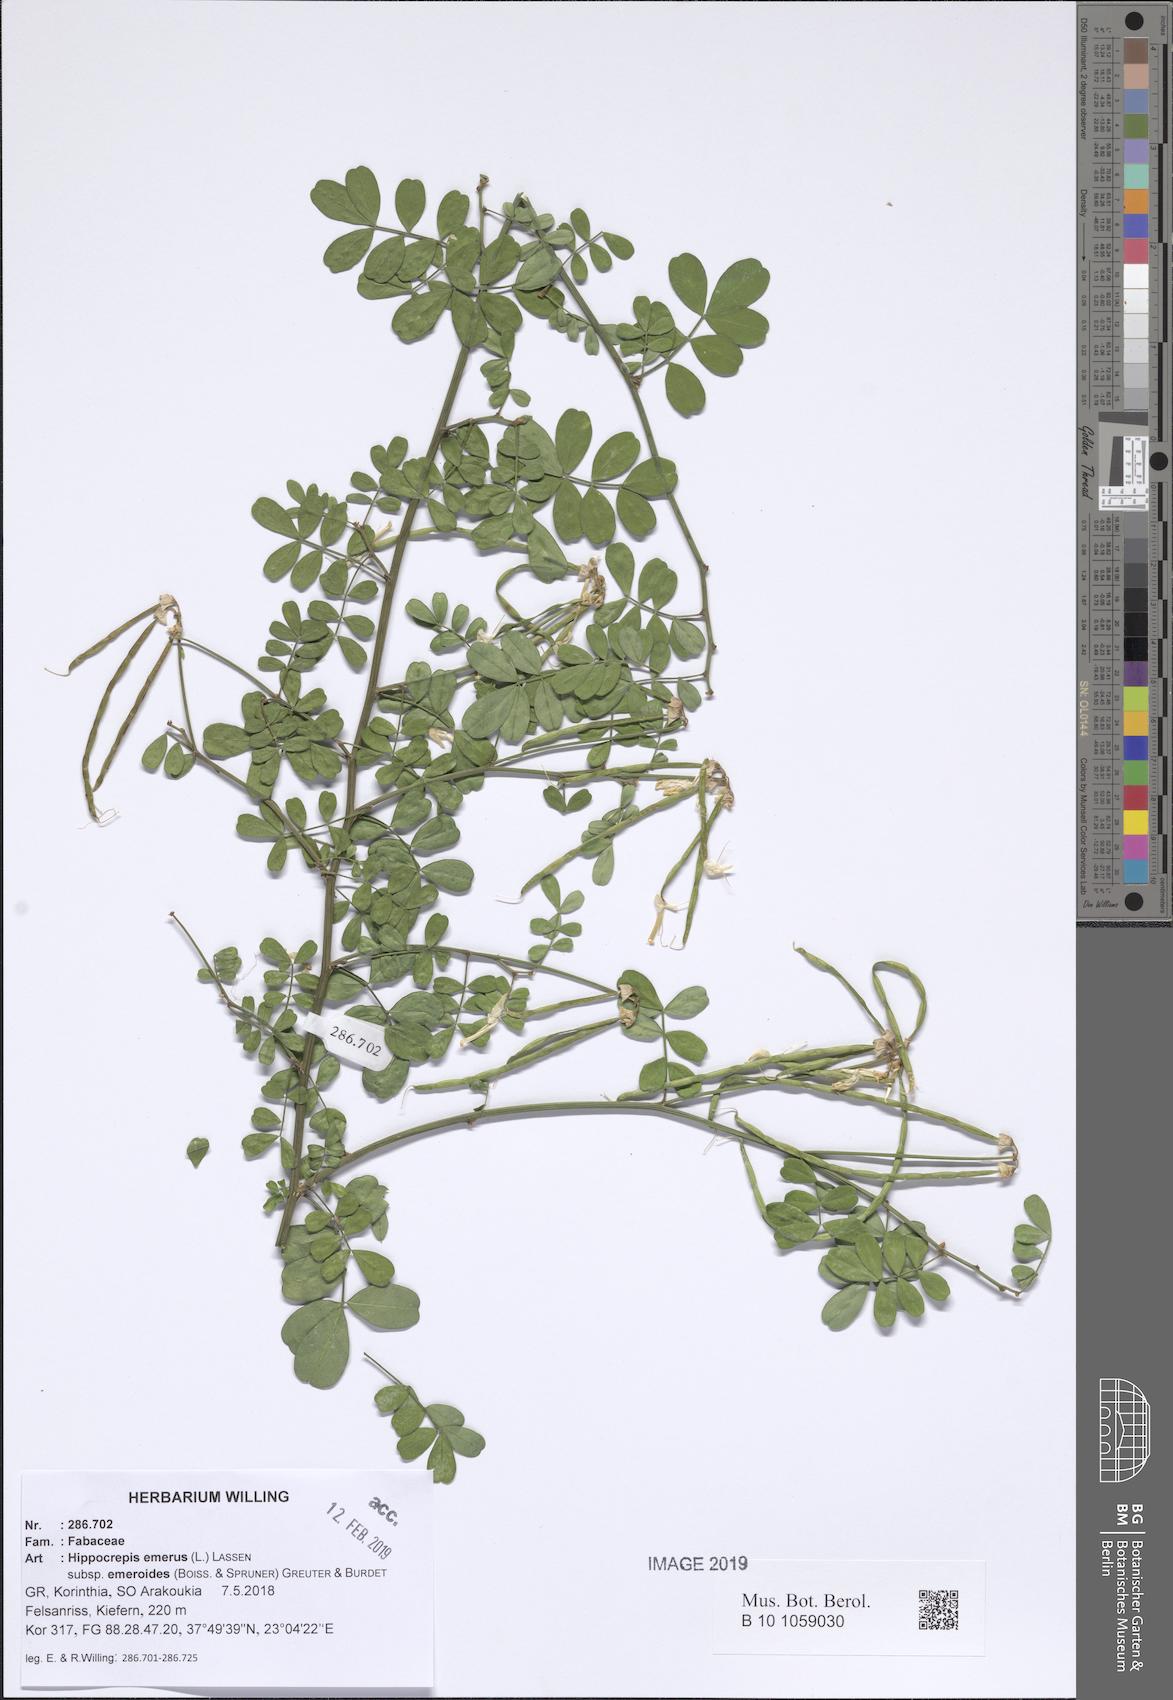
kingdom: Plantae
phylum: Tracheophyta
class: Magnoliopsida
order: Fabales
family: Fabaceae
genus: Hippocrepis
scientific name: Hippocrepis emerus
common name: Scorpion senna
